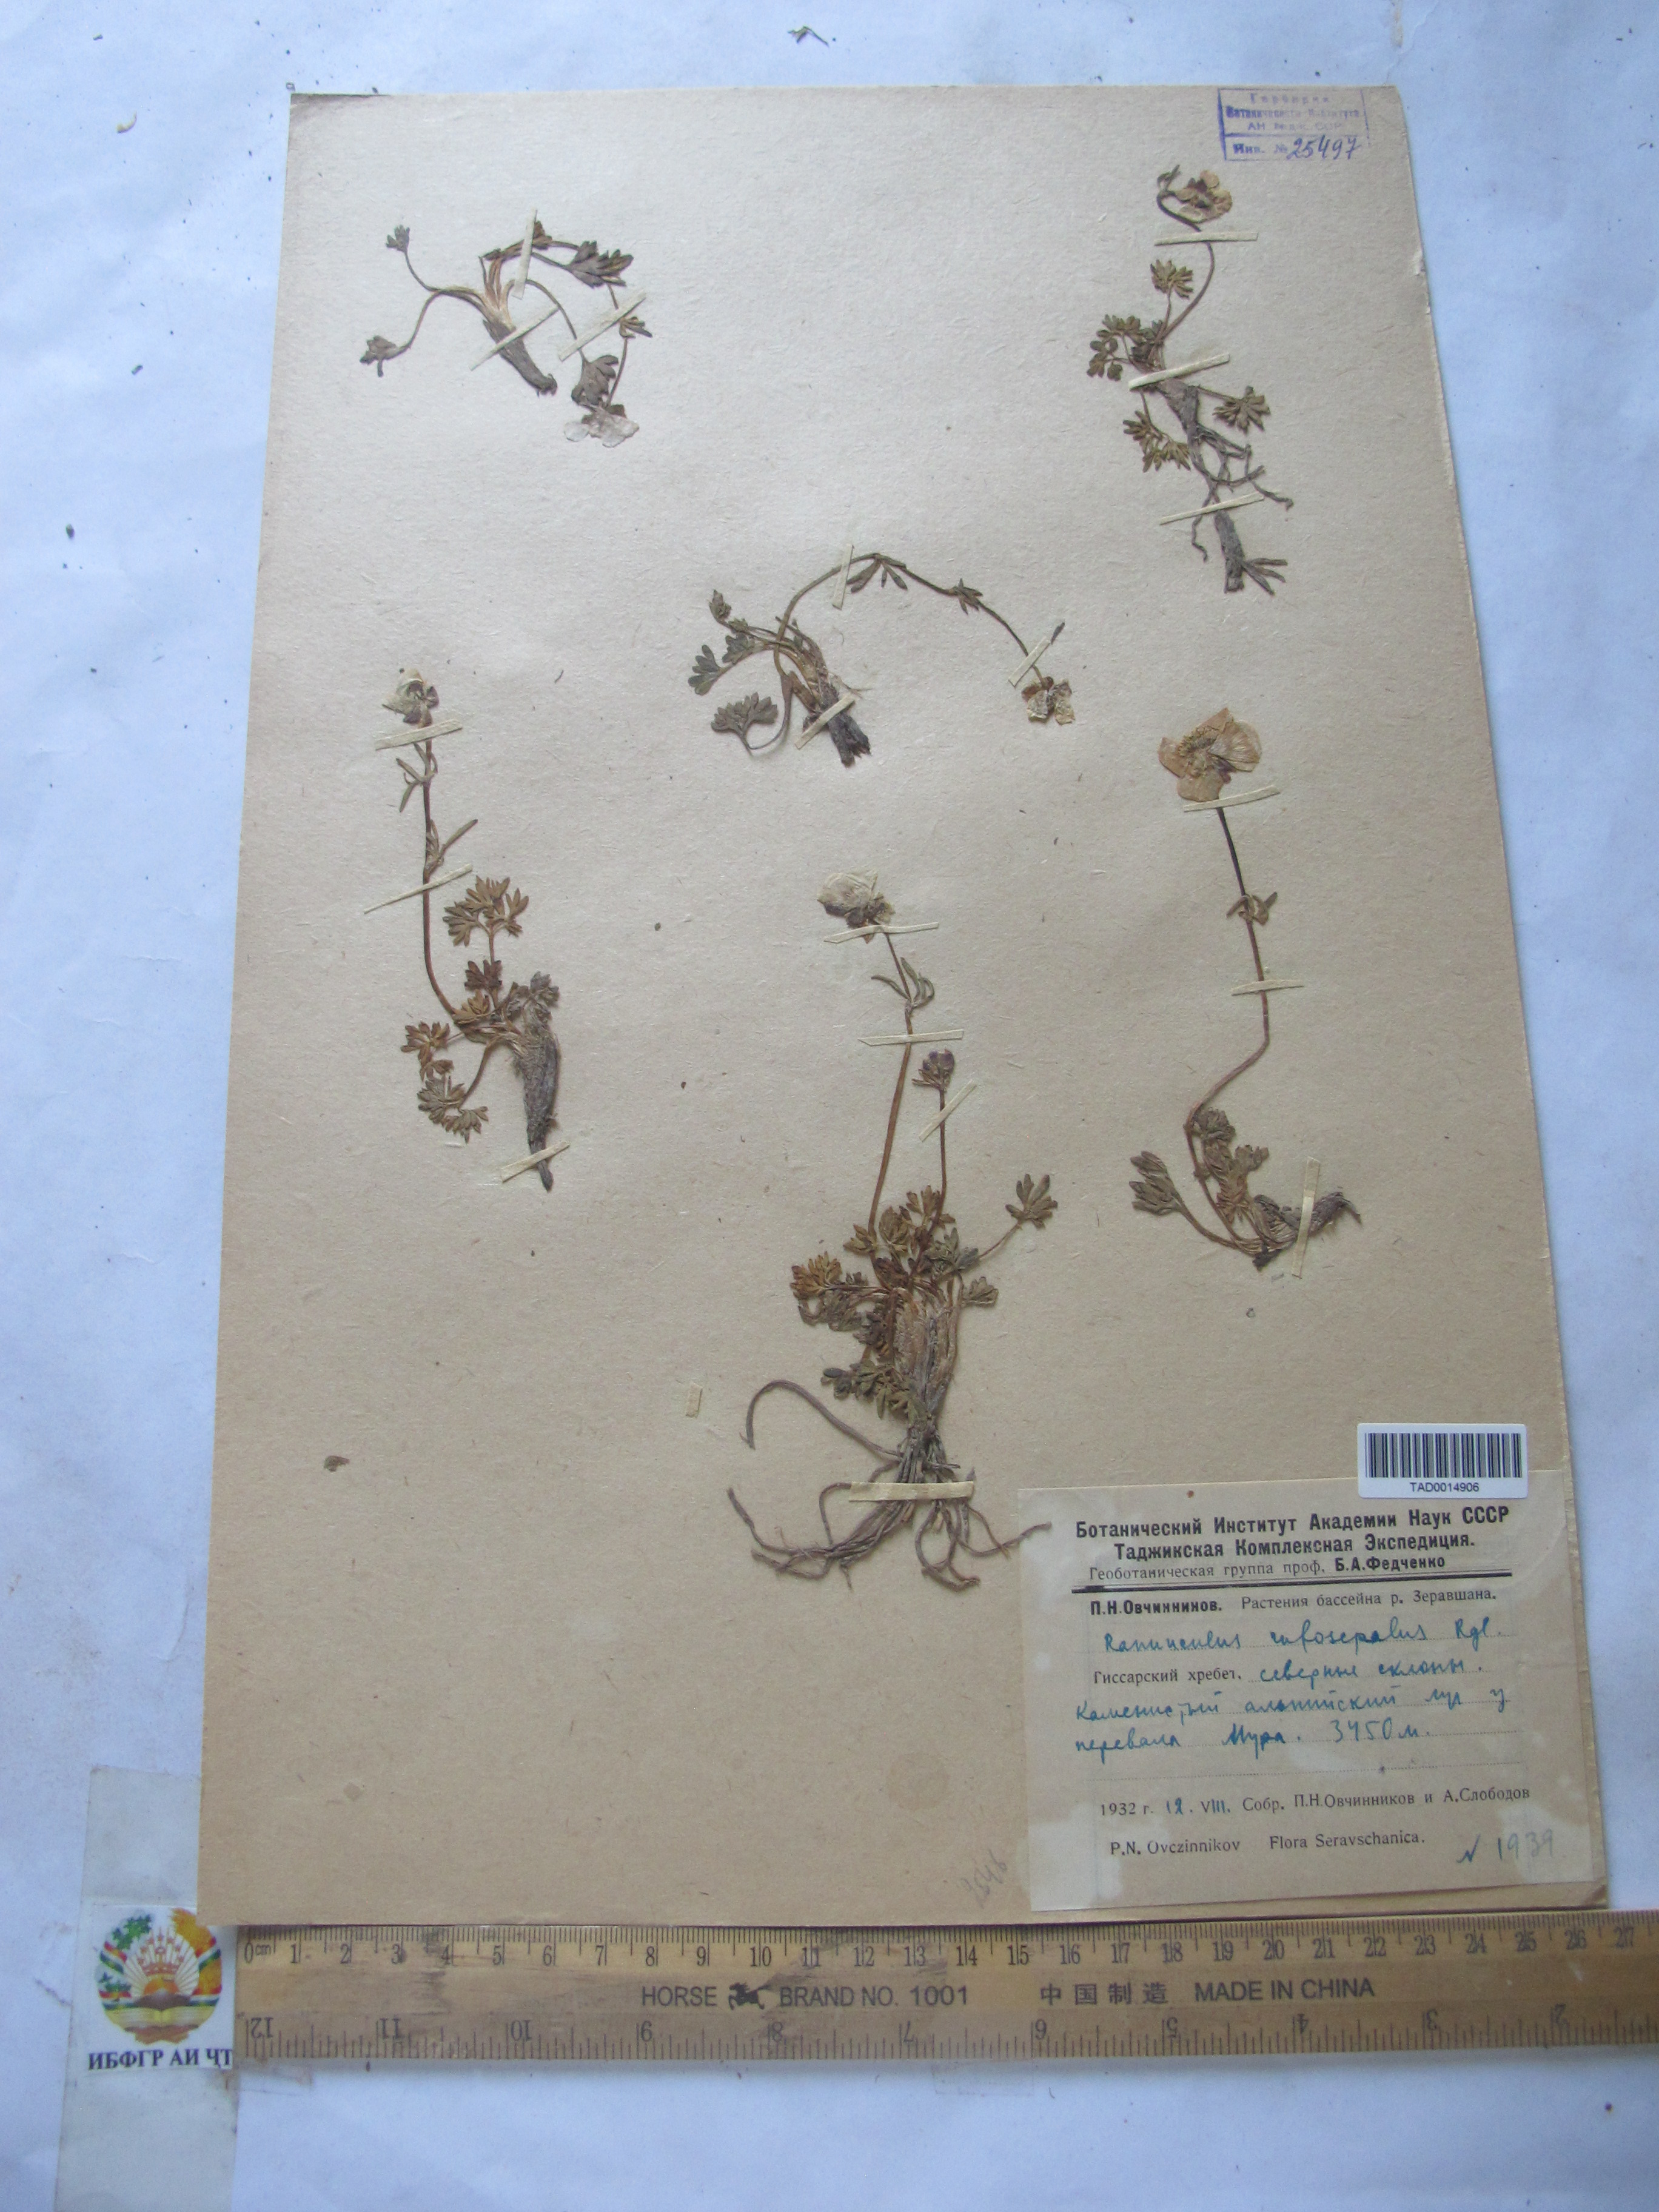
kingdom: Plantae
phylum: Tracheophyta
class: Magnoliopsida
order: Ranunculales
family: Ranunculaceae
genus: Ranunculus
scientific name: Ranunculus rufosepalus
